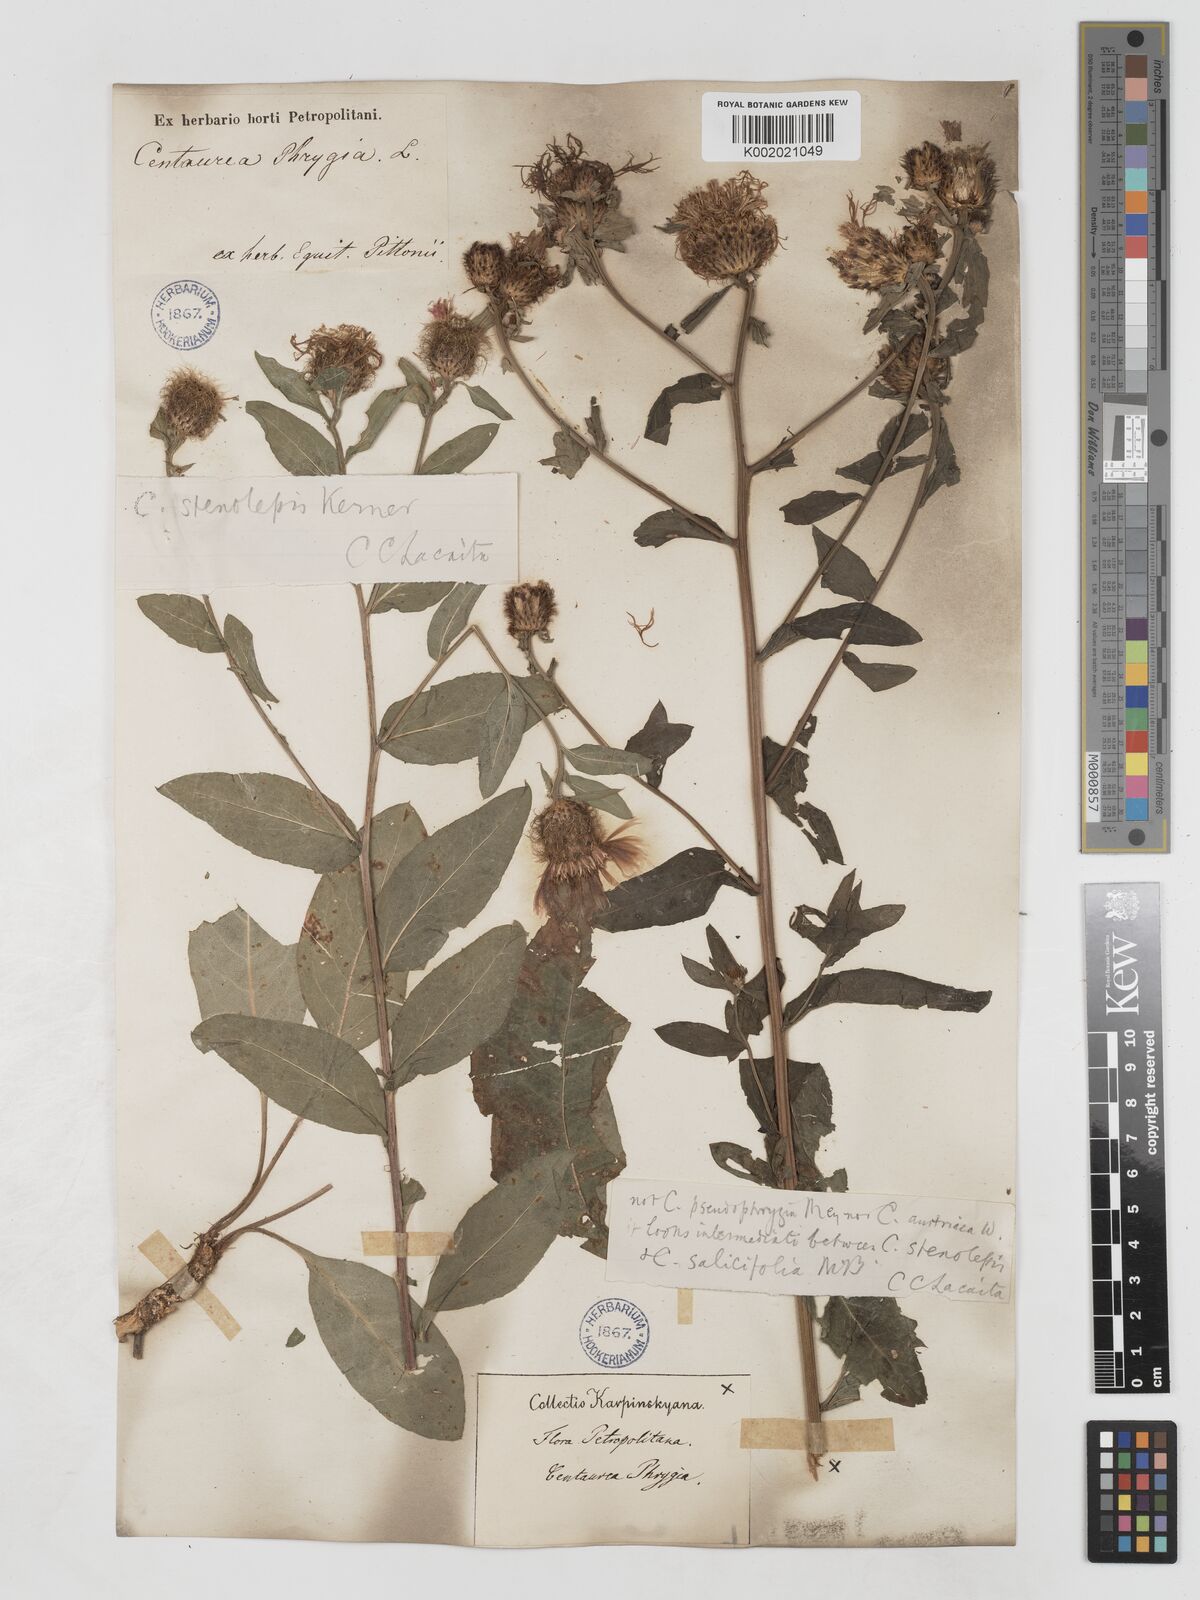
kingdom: Plantae
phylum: Tracheophyta
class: Magnoliopsida
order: Asterales
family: Asteraceae
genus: Centaurea
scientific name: Centaurea stenolepis
